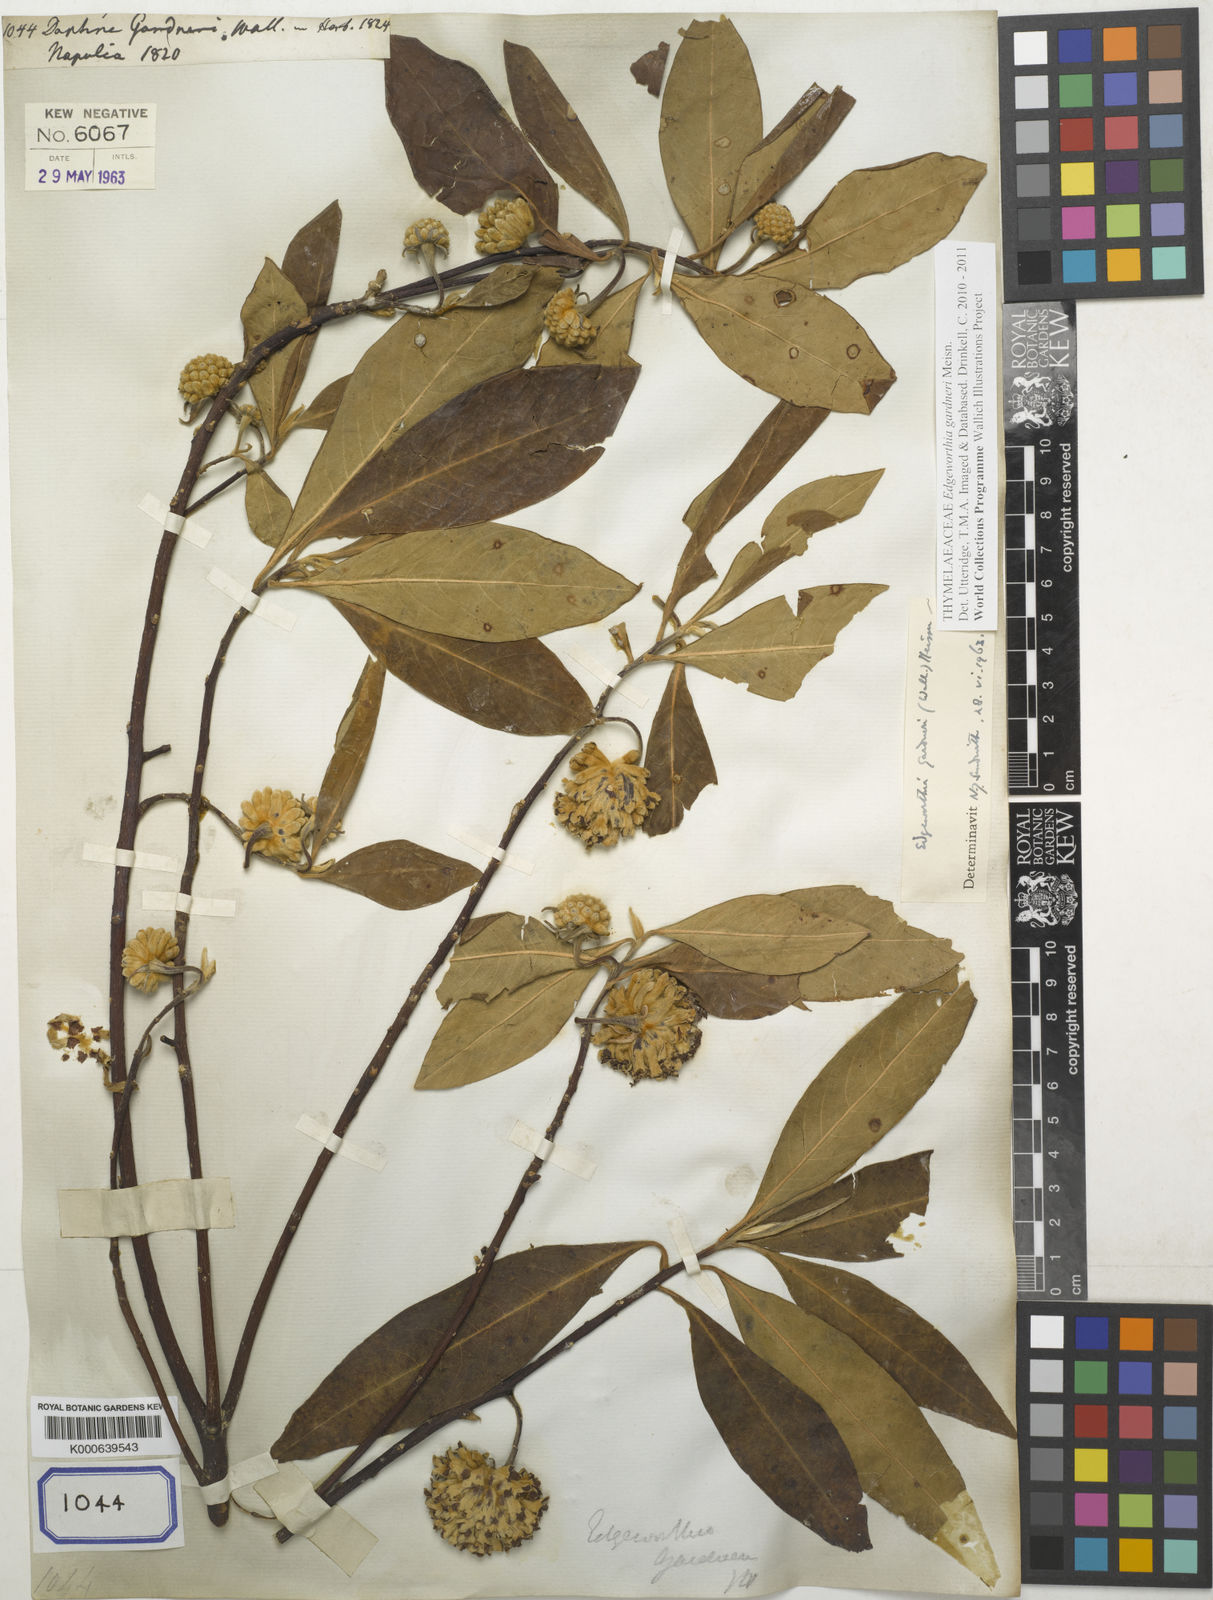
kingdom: Plantae
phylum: Tracheophyta
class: Magnoliopsida
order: Malvales
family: Thymelaeaceae
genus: Edgeworthia
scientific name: Edgeworthia gardneri
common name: Nepalese paperbush
